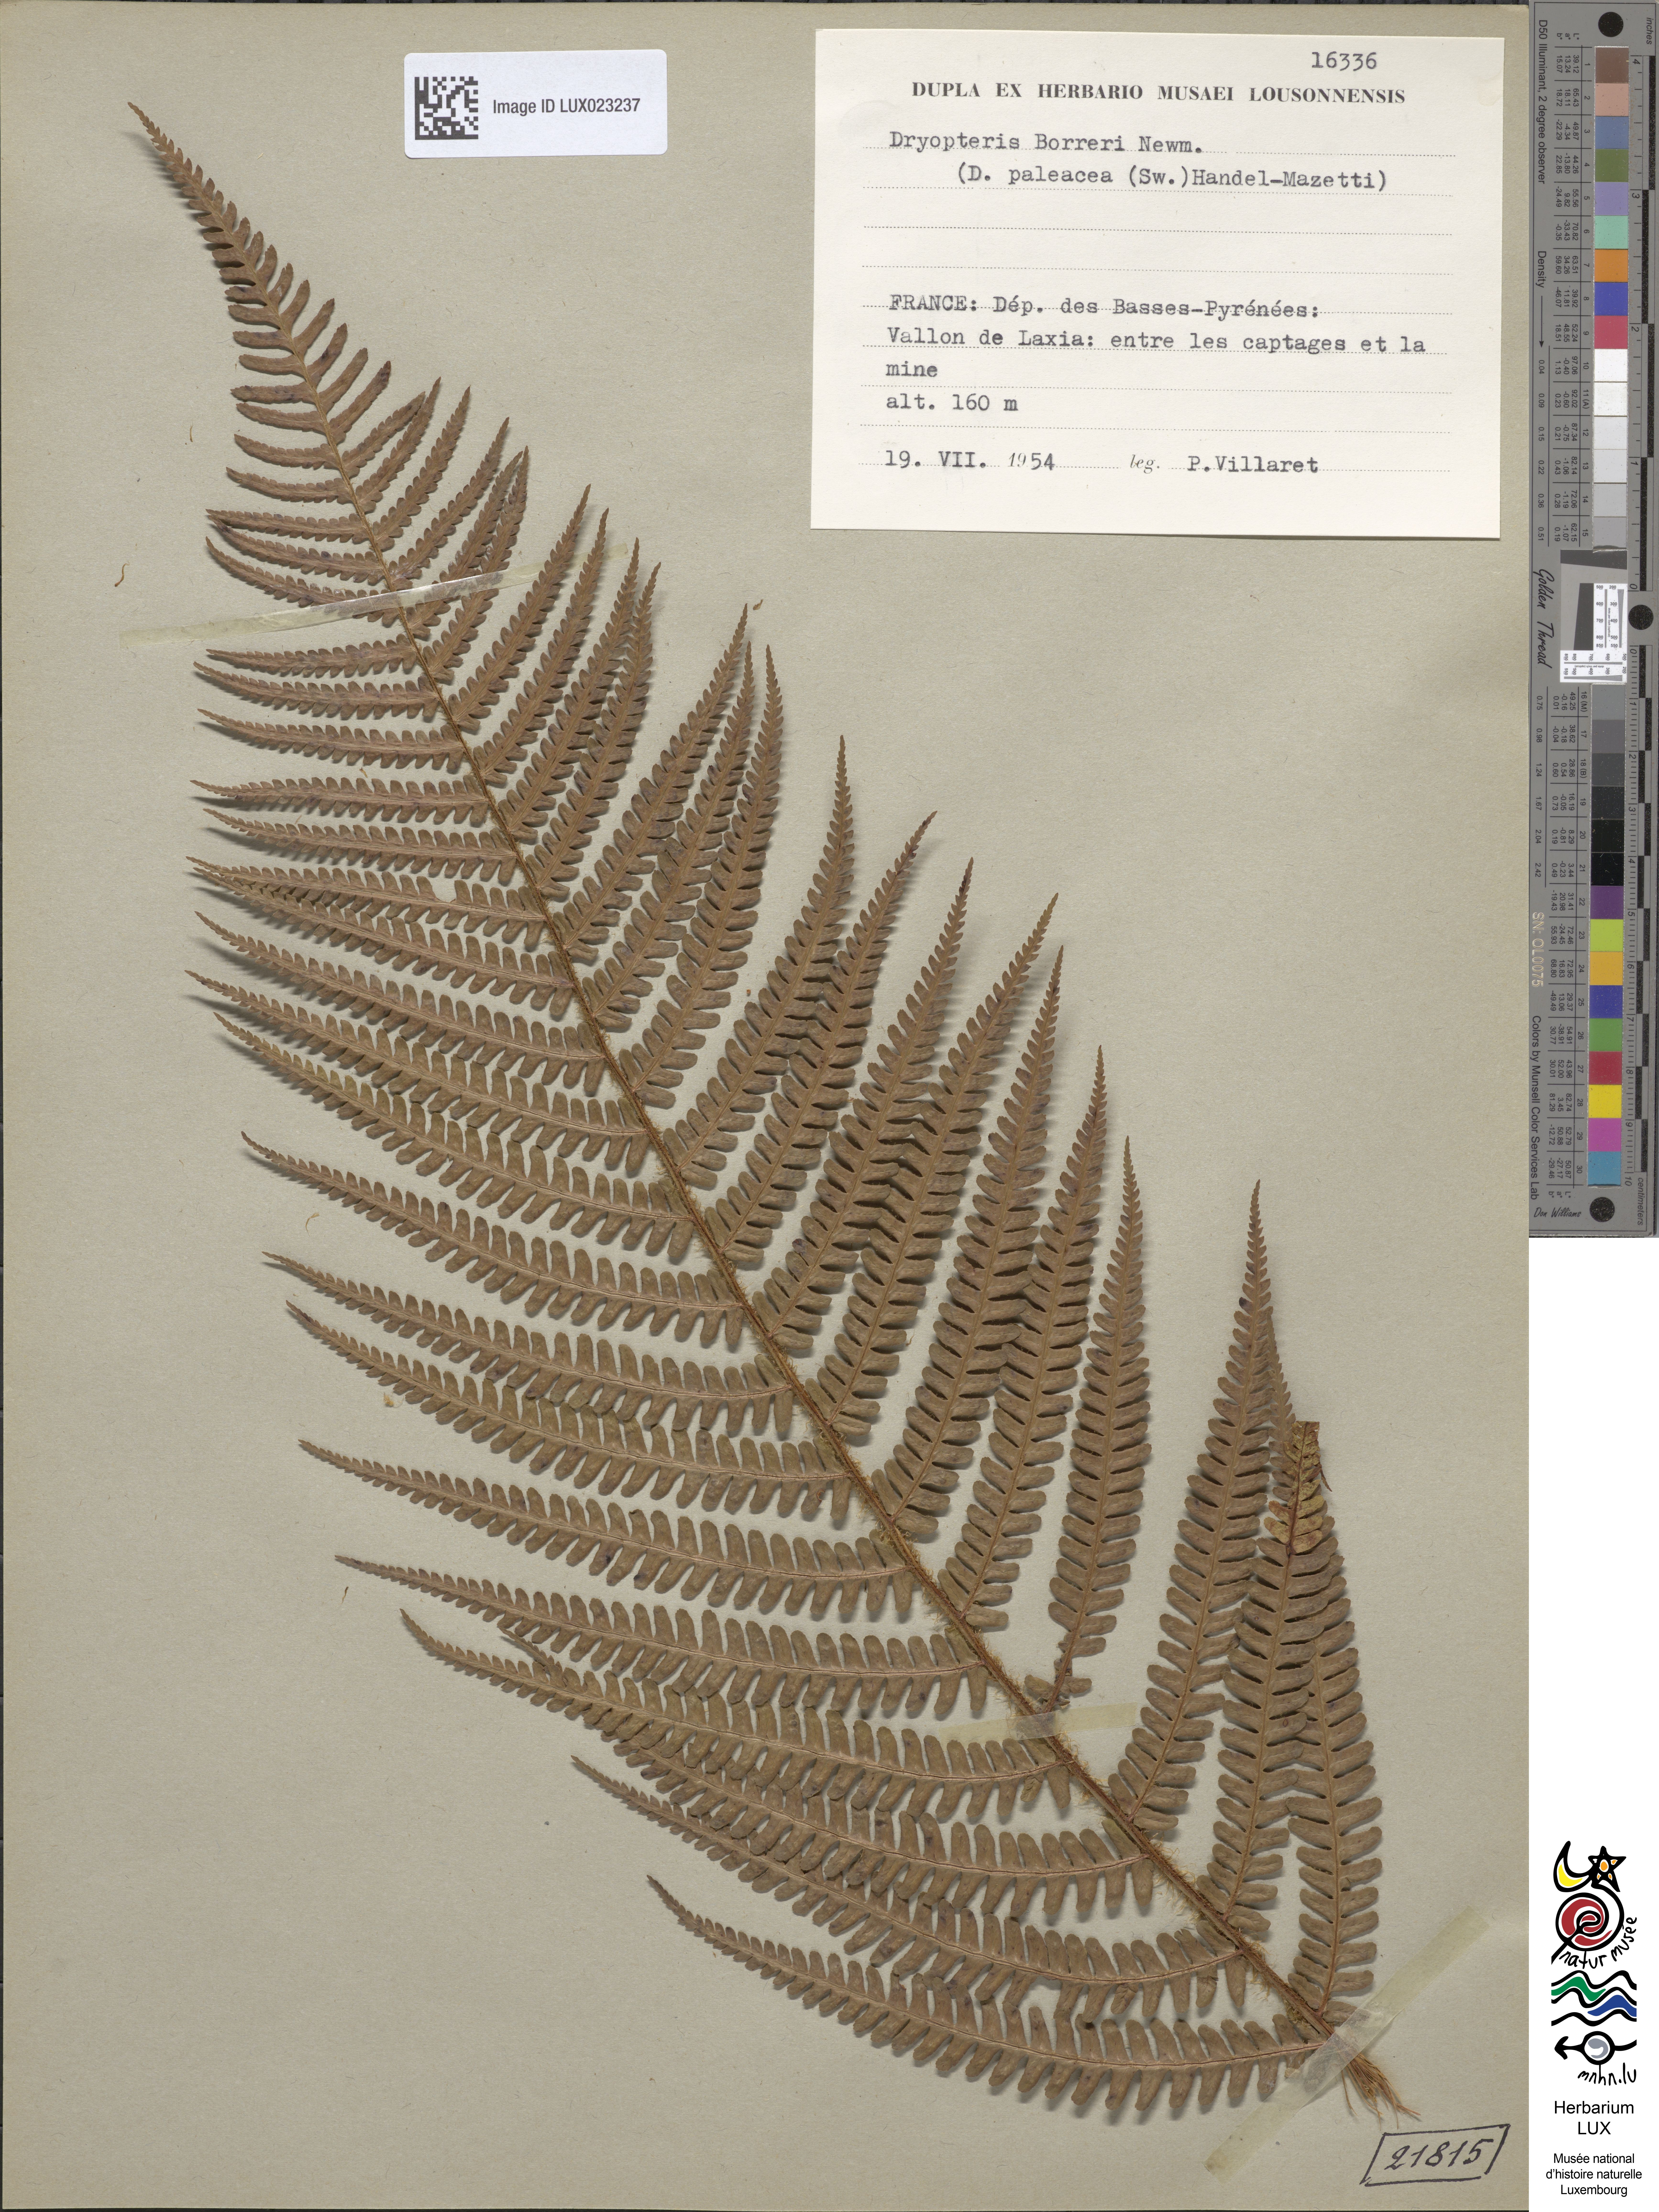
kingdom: Plantae
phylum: Tracheophyta
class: Polypodiopsida
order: Polypodiales
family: Dryopteridaceae
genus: Dryopteris
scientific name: Dryopteris
